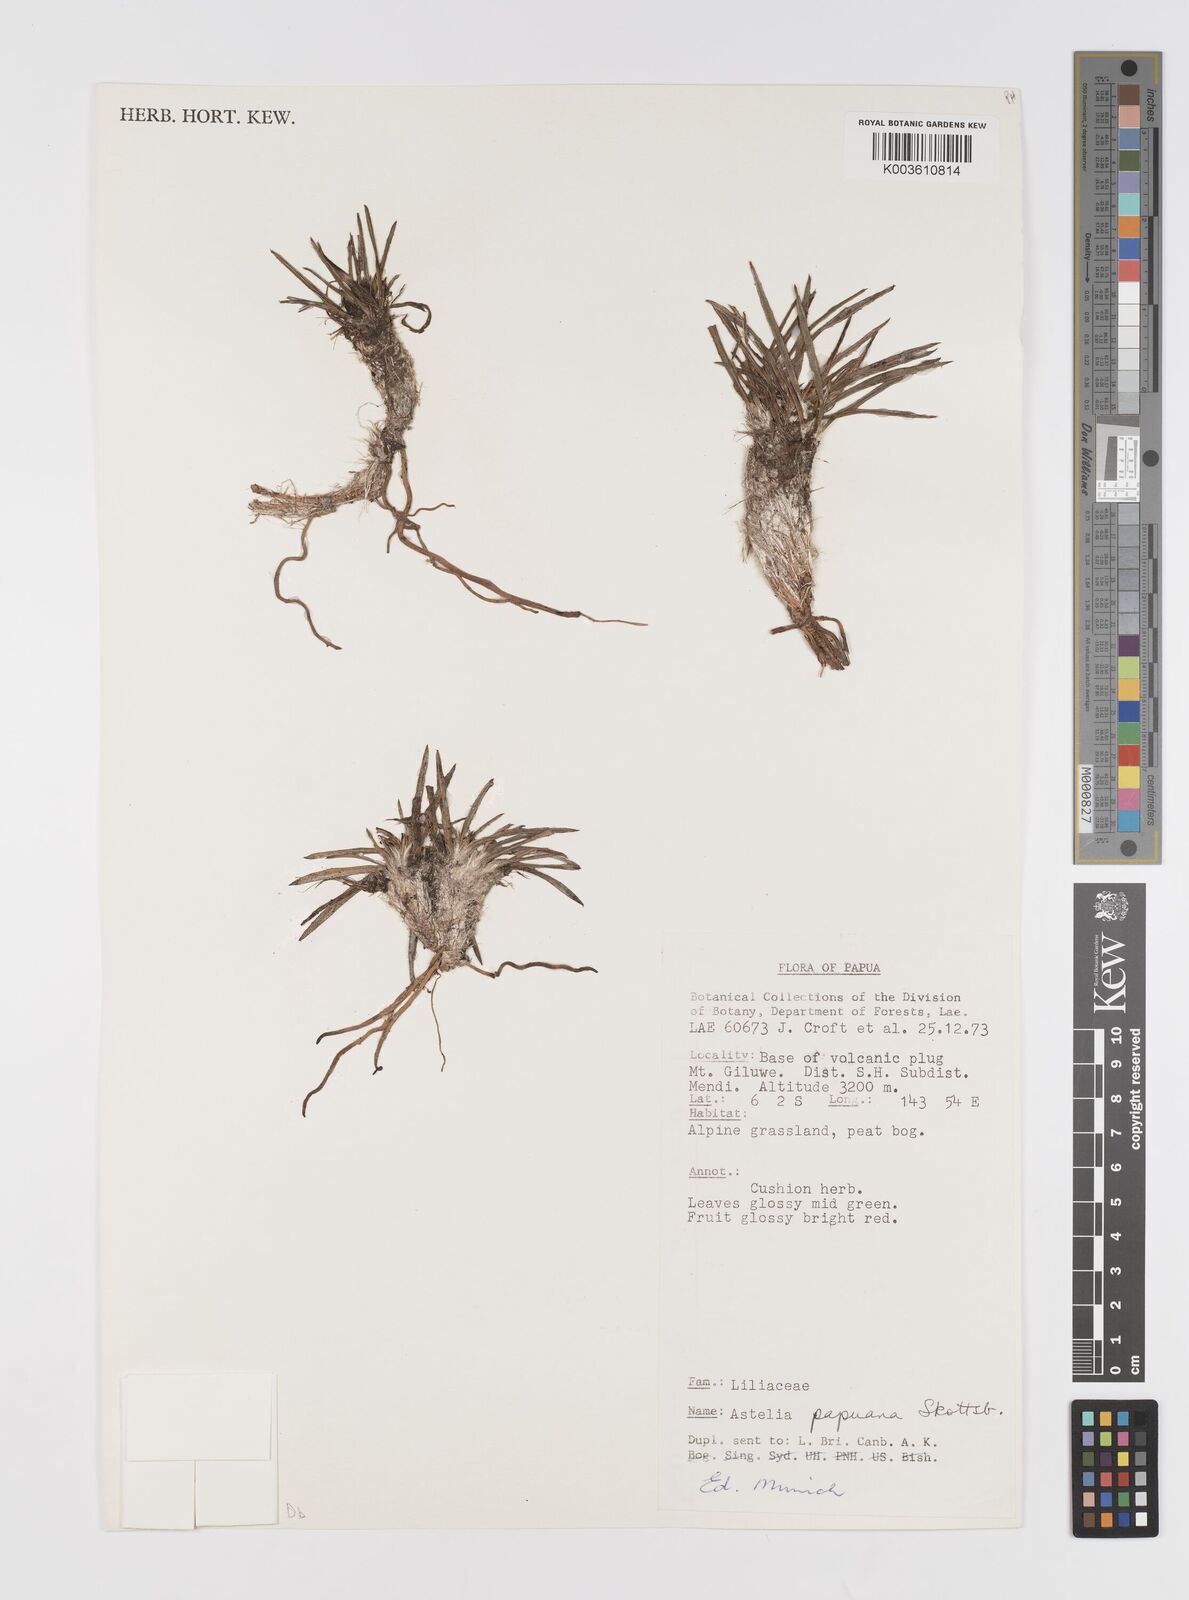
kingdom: Plantae
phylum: Tracheophyta
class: Liliopsida
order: Asparagales
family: Asteliaceae
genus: Astelia
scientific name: Astelia papuana
